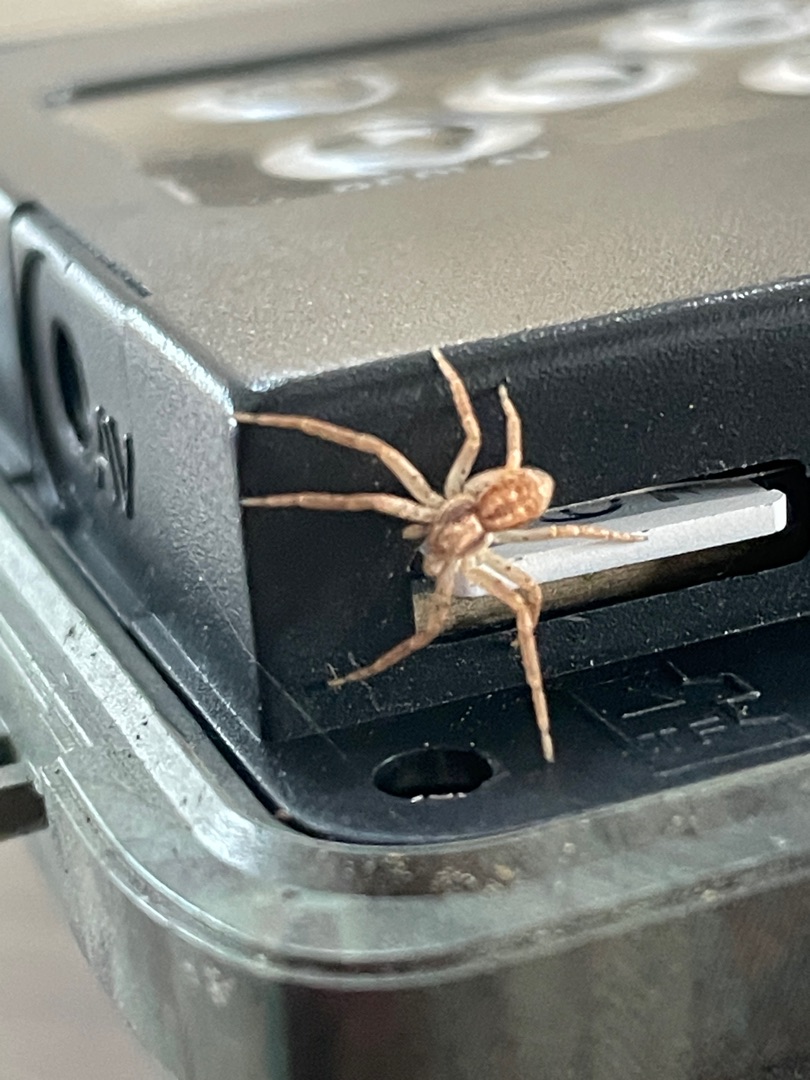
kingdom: Animalia
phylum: Arthropoda
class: Arachnida
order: Araneae
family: Philodromidae
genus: Philodromus
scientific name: Philodromus dispar
